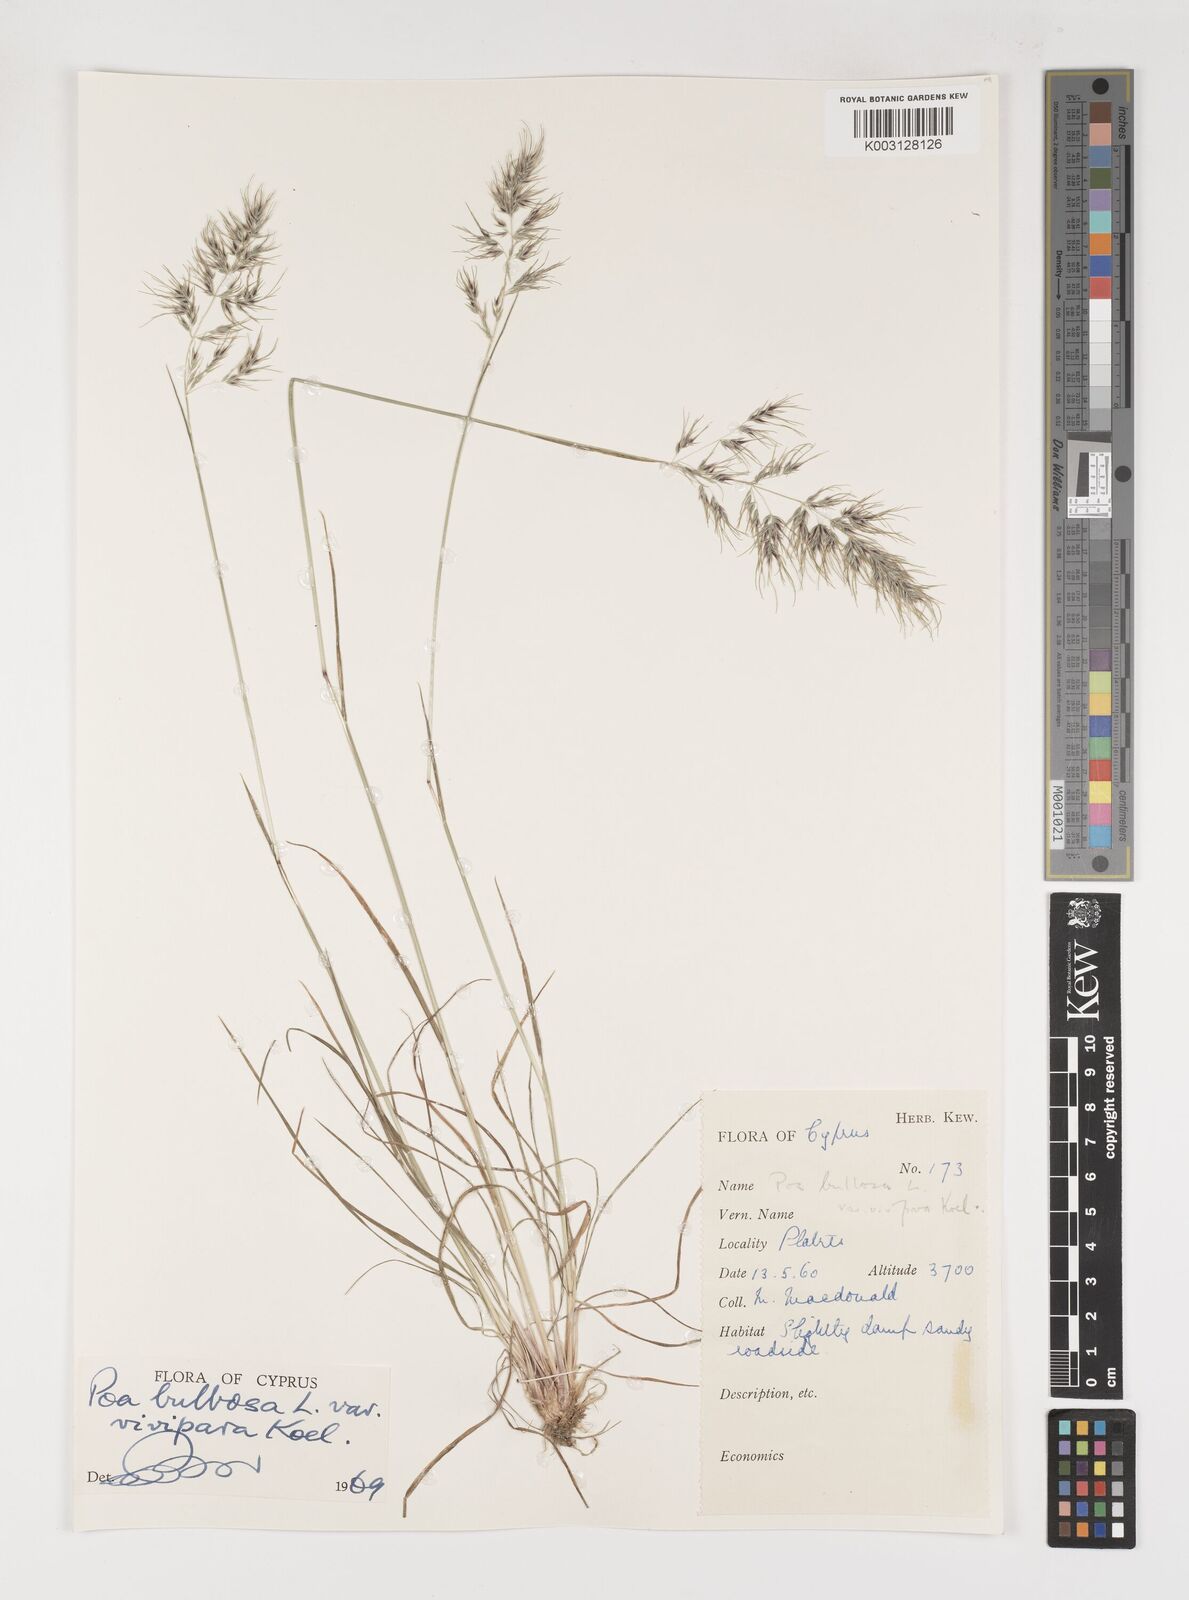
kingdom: Plantae
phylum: Tracheophyta
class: Liliopsida
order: Poales
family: Poaceae
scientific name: Poaceae
